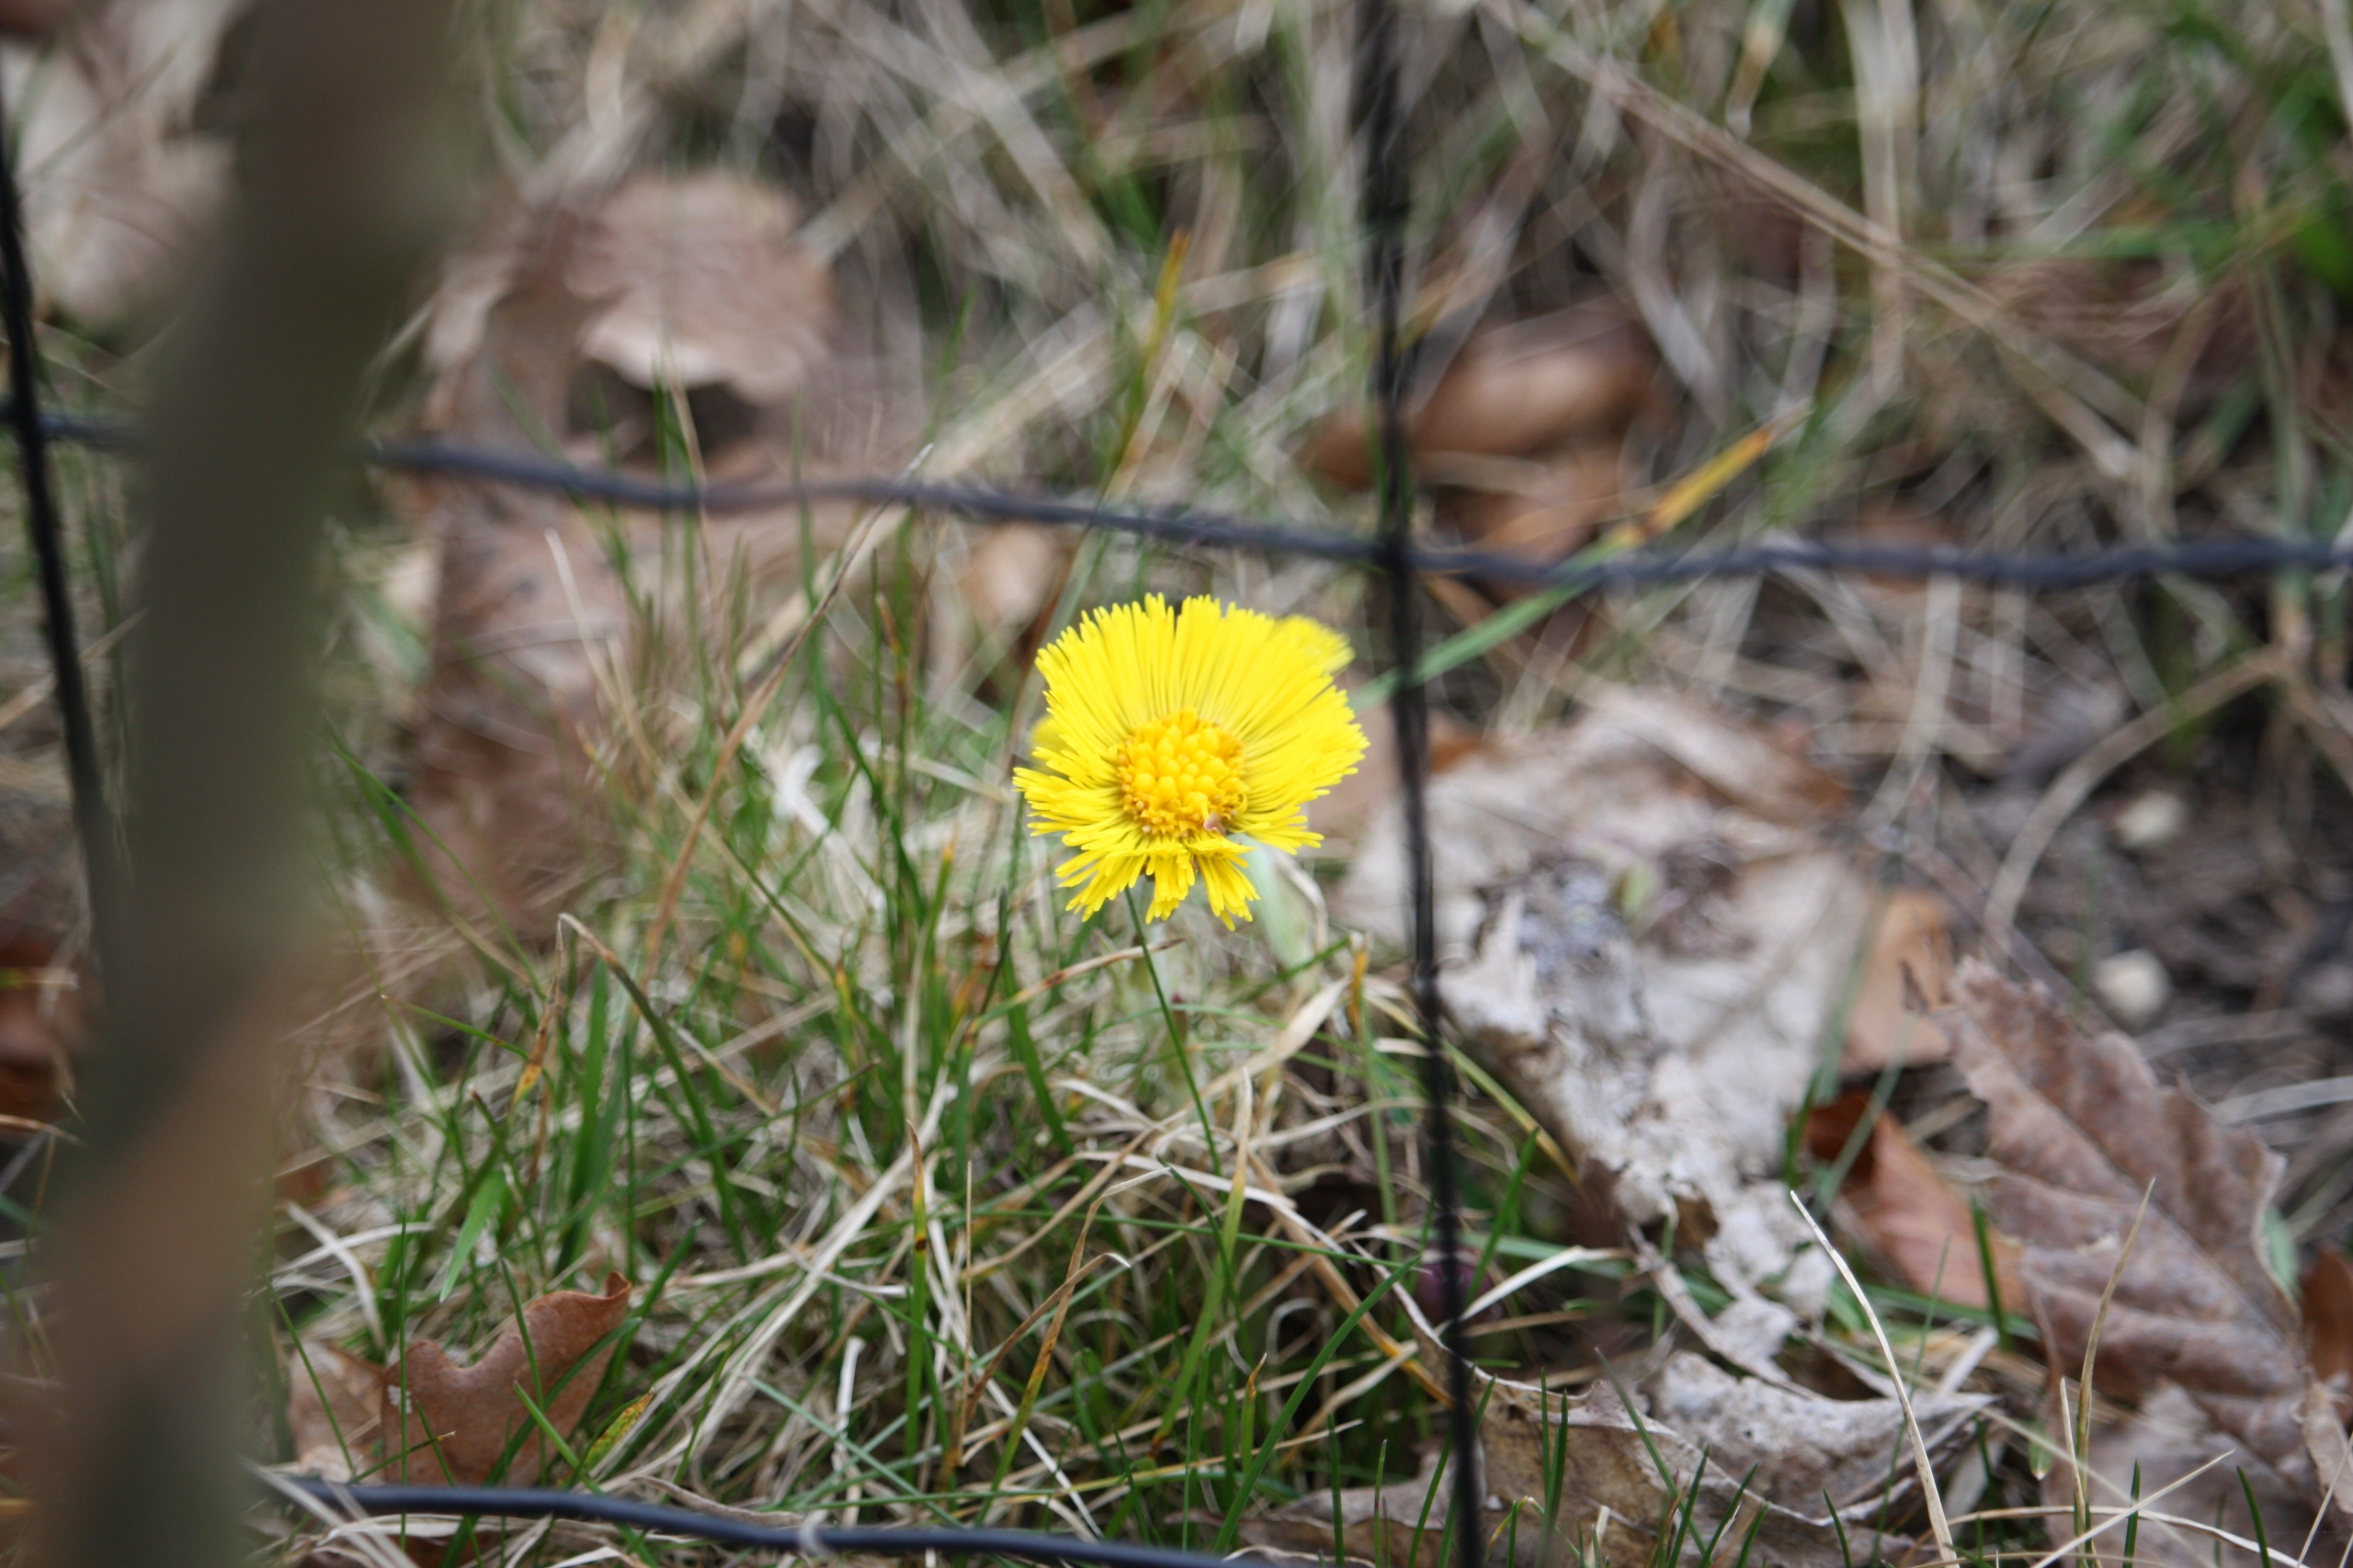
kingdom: Plantae
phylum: Tracheophyta
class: Magnoliopsida
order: Asterales
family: Asteraceae
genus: Tussilago
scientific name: Tussilago farfara
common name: Følfod
